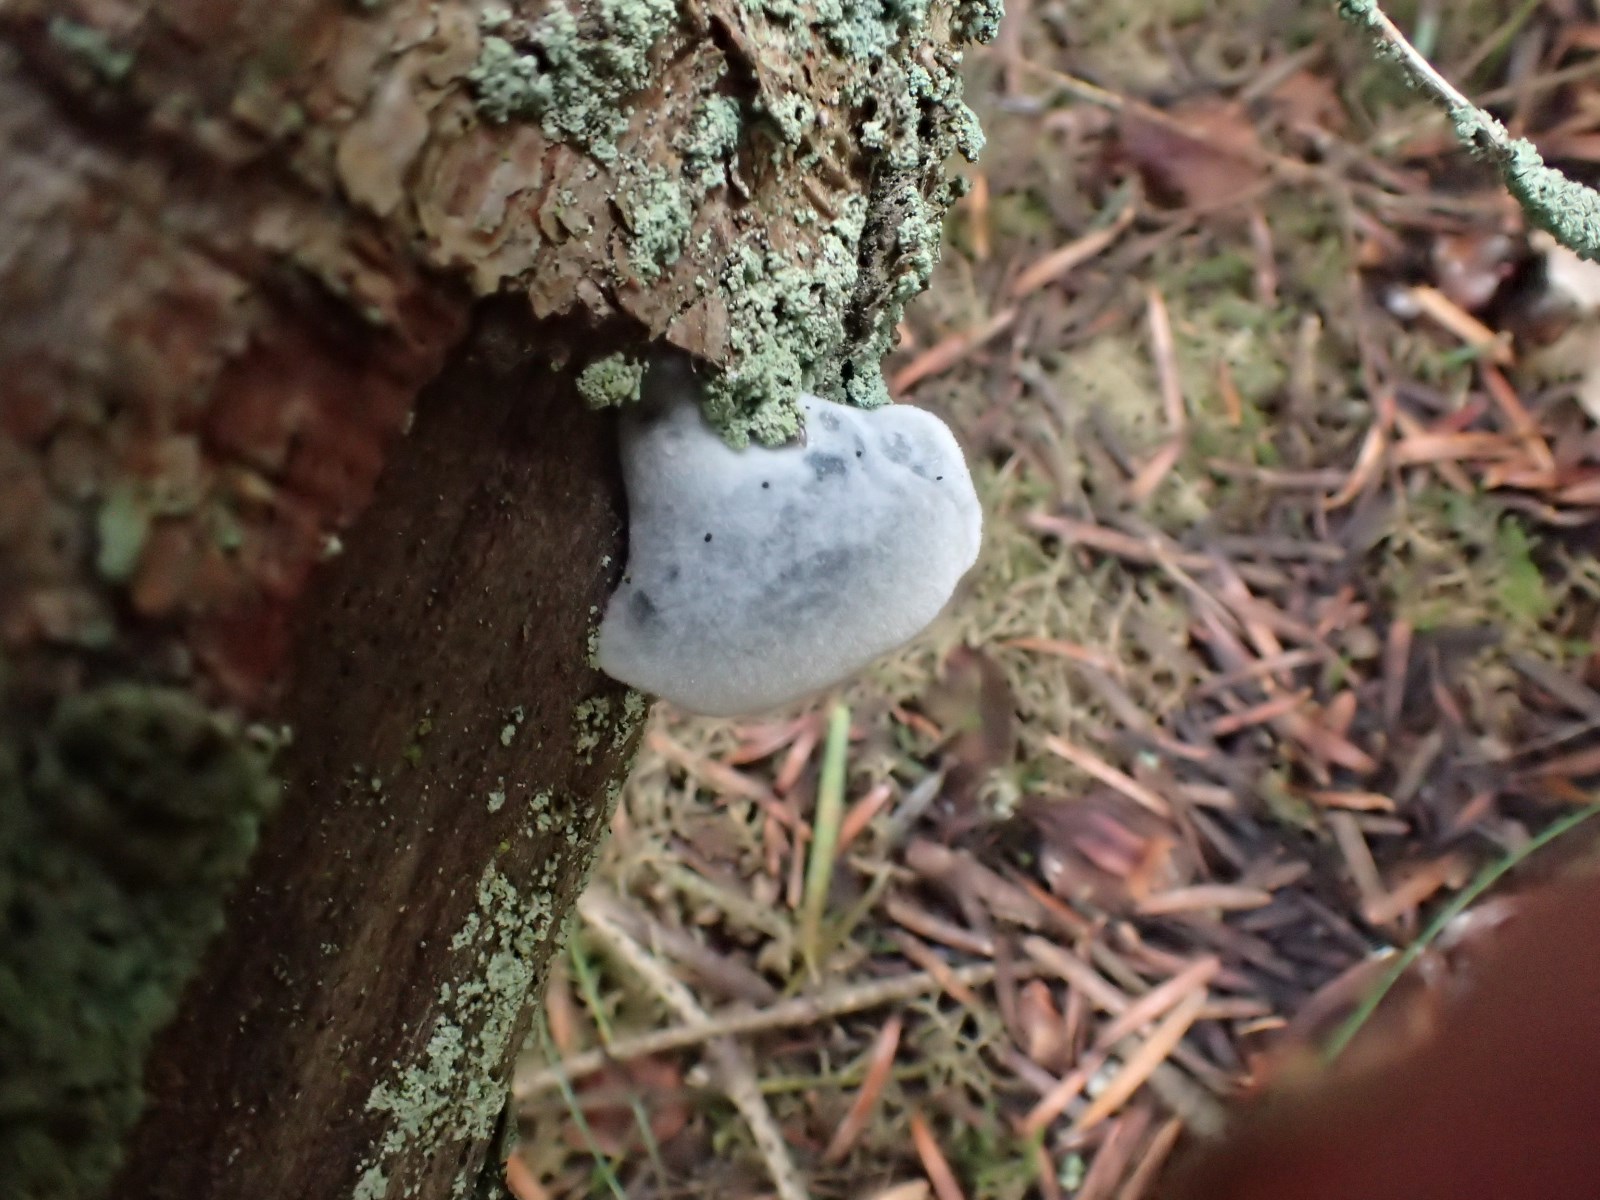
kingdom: Fungi
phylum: Basidiomycota
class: Agaricomycetes
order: Polyporales
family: Polyporaceae
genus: Cyanosporus
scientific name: Cyanosporus caesius
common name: blålig kødporesvamp
